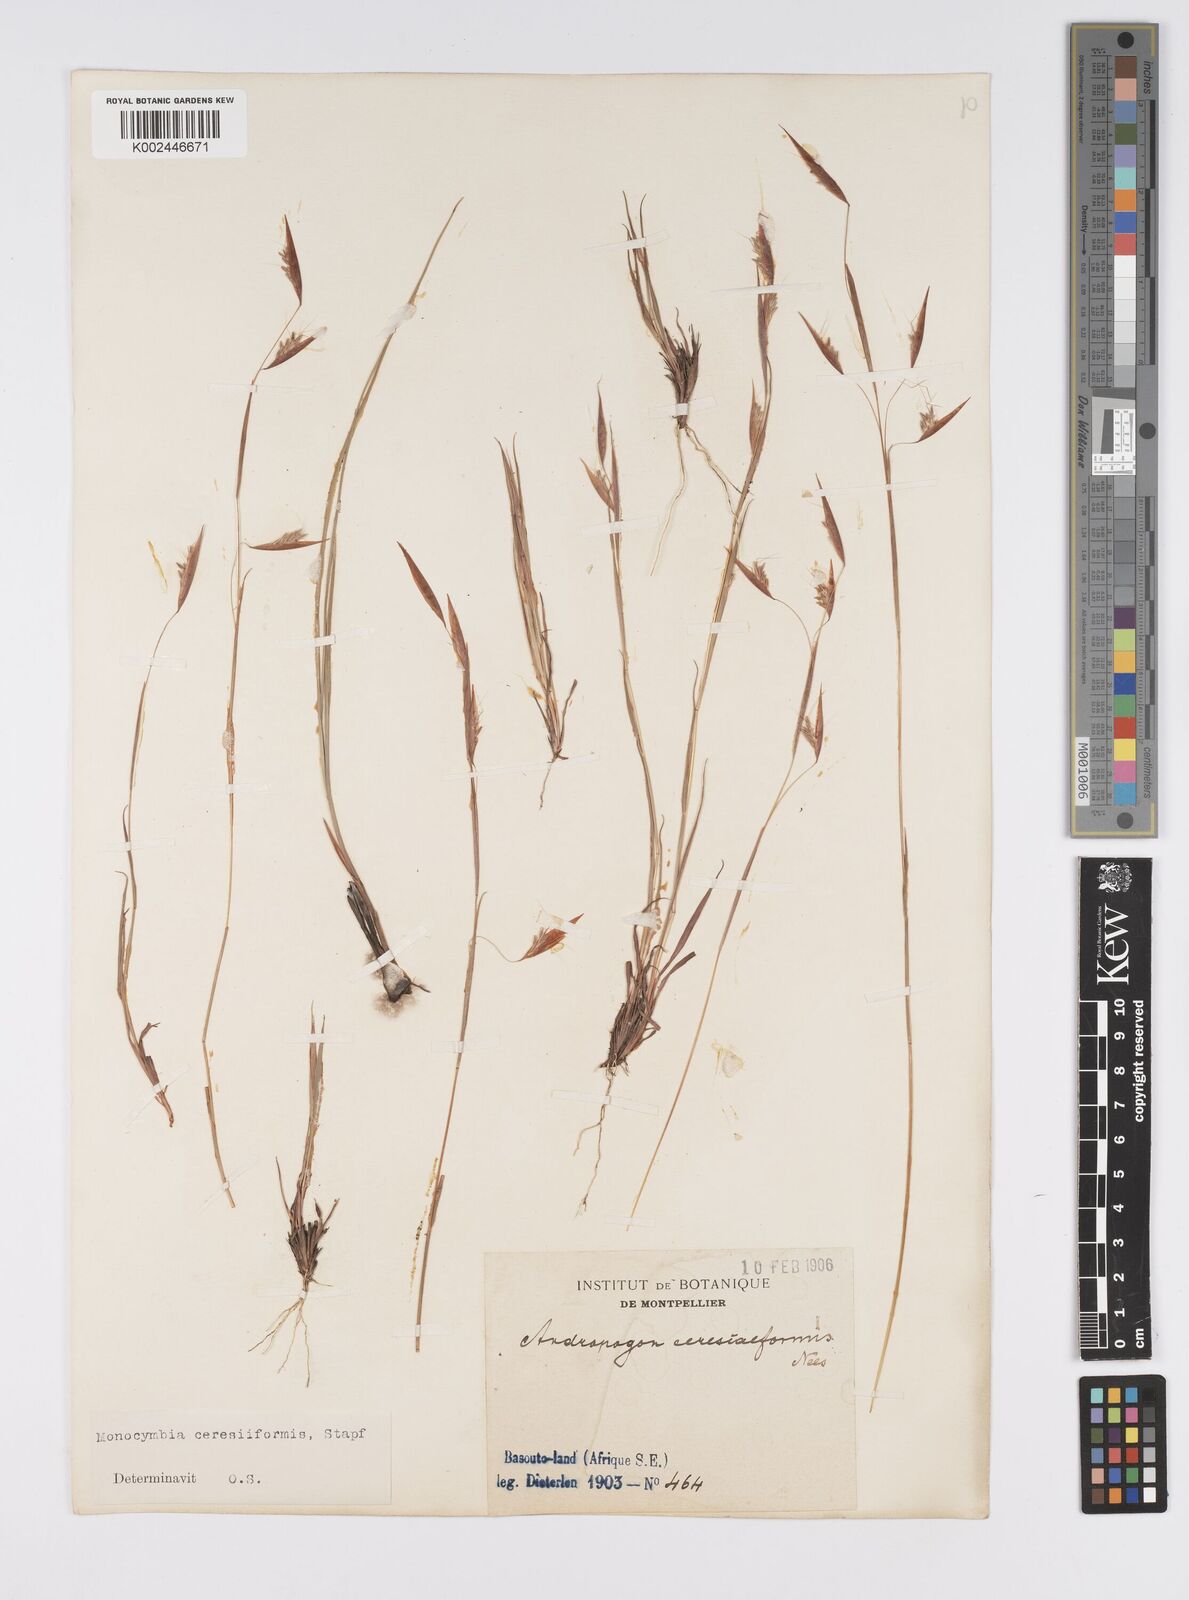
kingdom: Plantae
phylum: Tracheophyta
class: Liliopsida
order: Poales
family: Poaceae
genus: Monocymbium
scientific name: Monocymbium ceresiiforme
